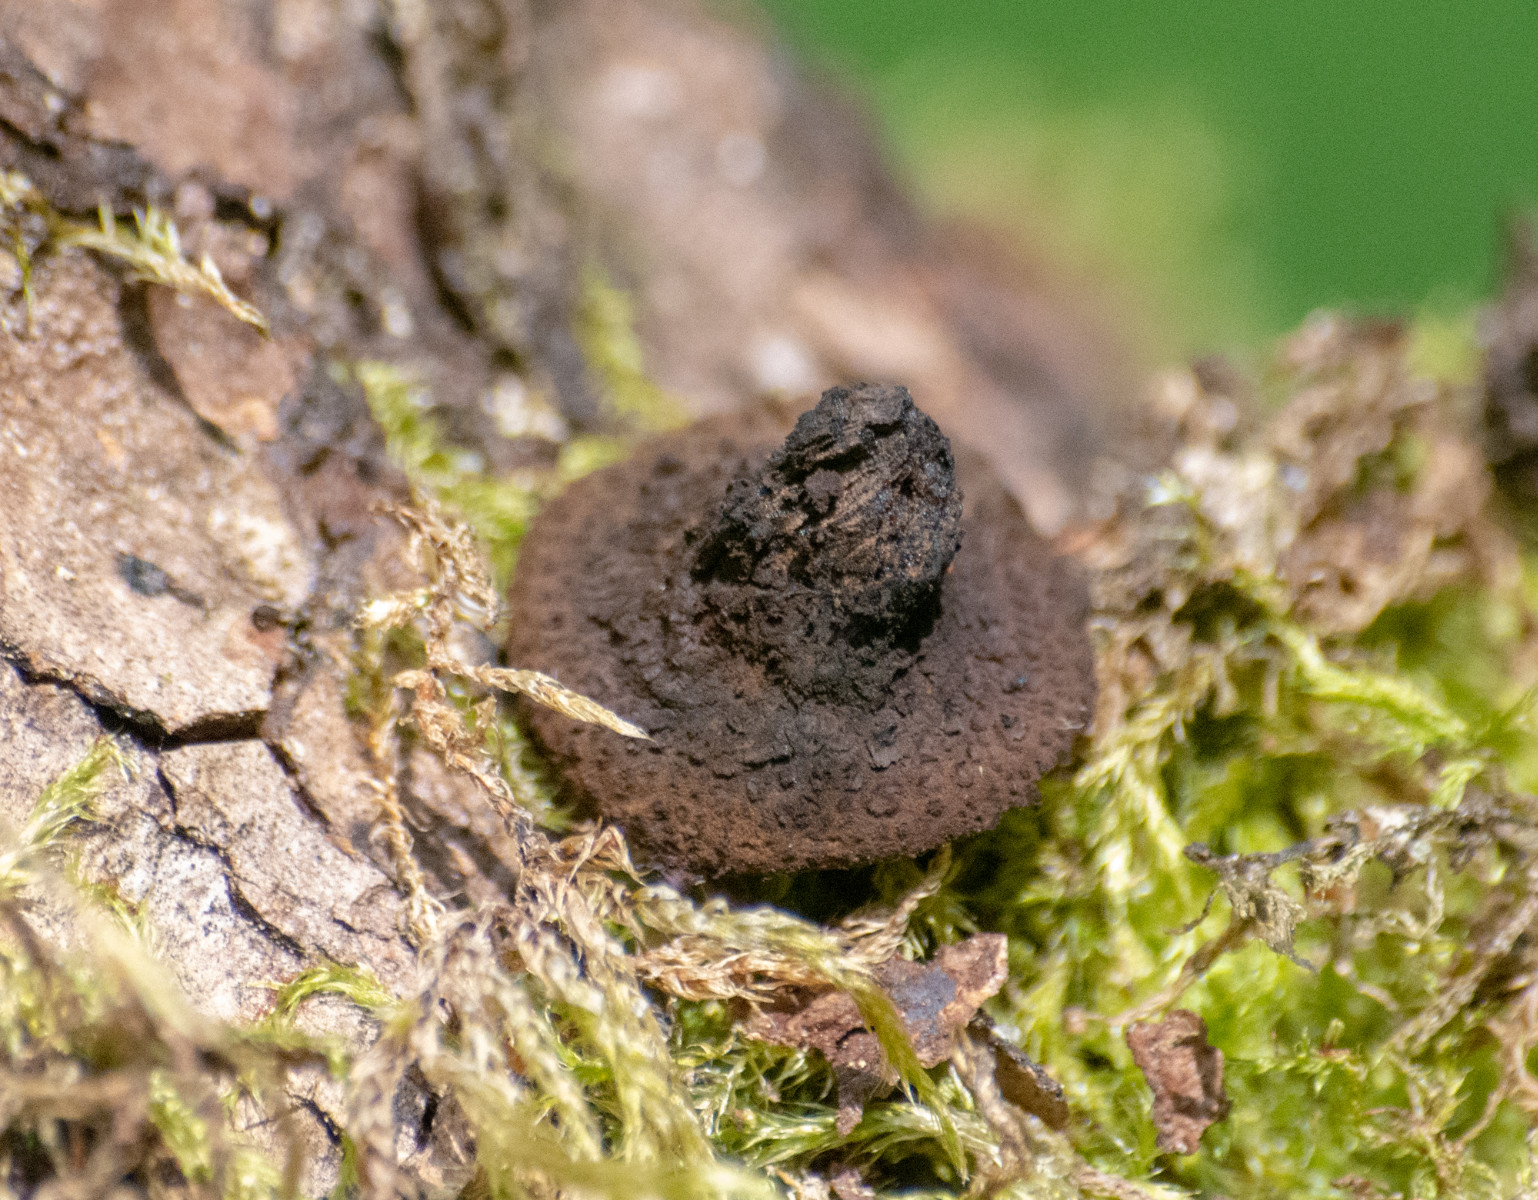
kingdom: Fungi
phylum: Ascomycota
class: Leotiomycetes
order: Phacidiales
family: Phacidiaceae
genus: Bulgaria
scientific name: Bulgaria inquinans
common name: afsmittende topsvamp
